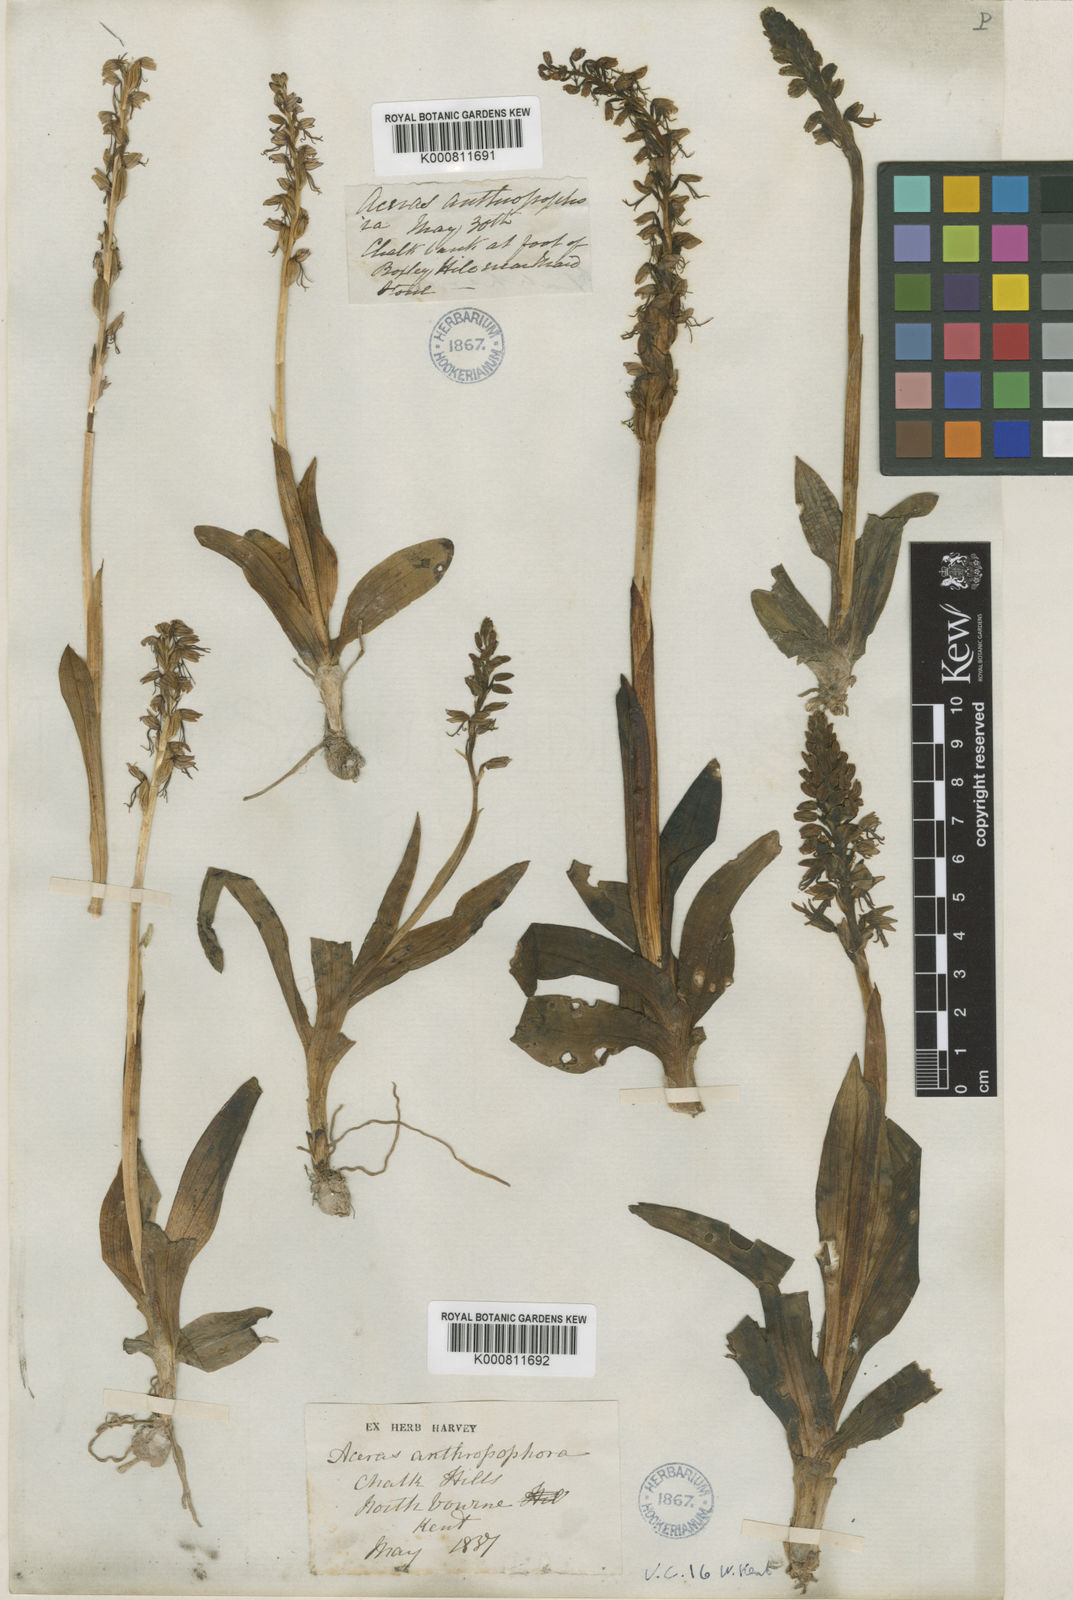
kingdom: Plantae
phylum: Tracheophyta
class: Liliopsida
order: Asparagales
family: Orchidaceae
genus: Orchis
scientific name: Orchis
